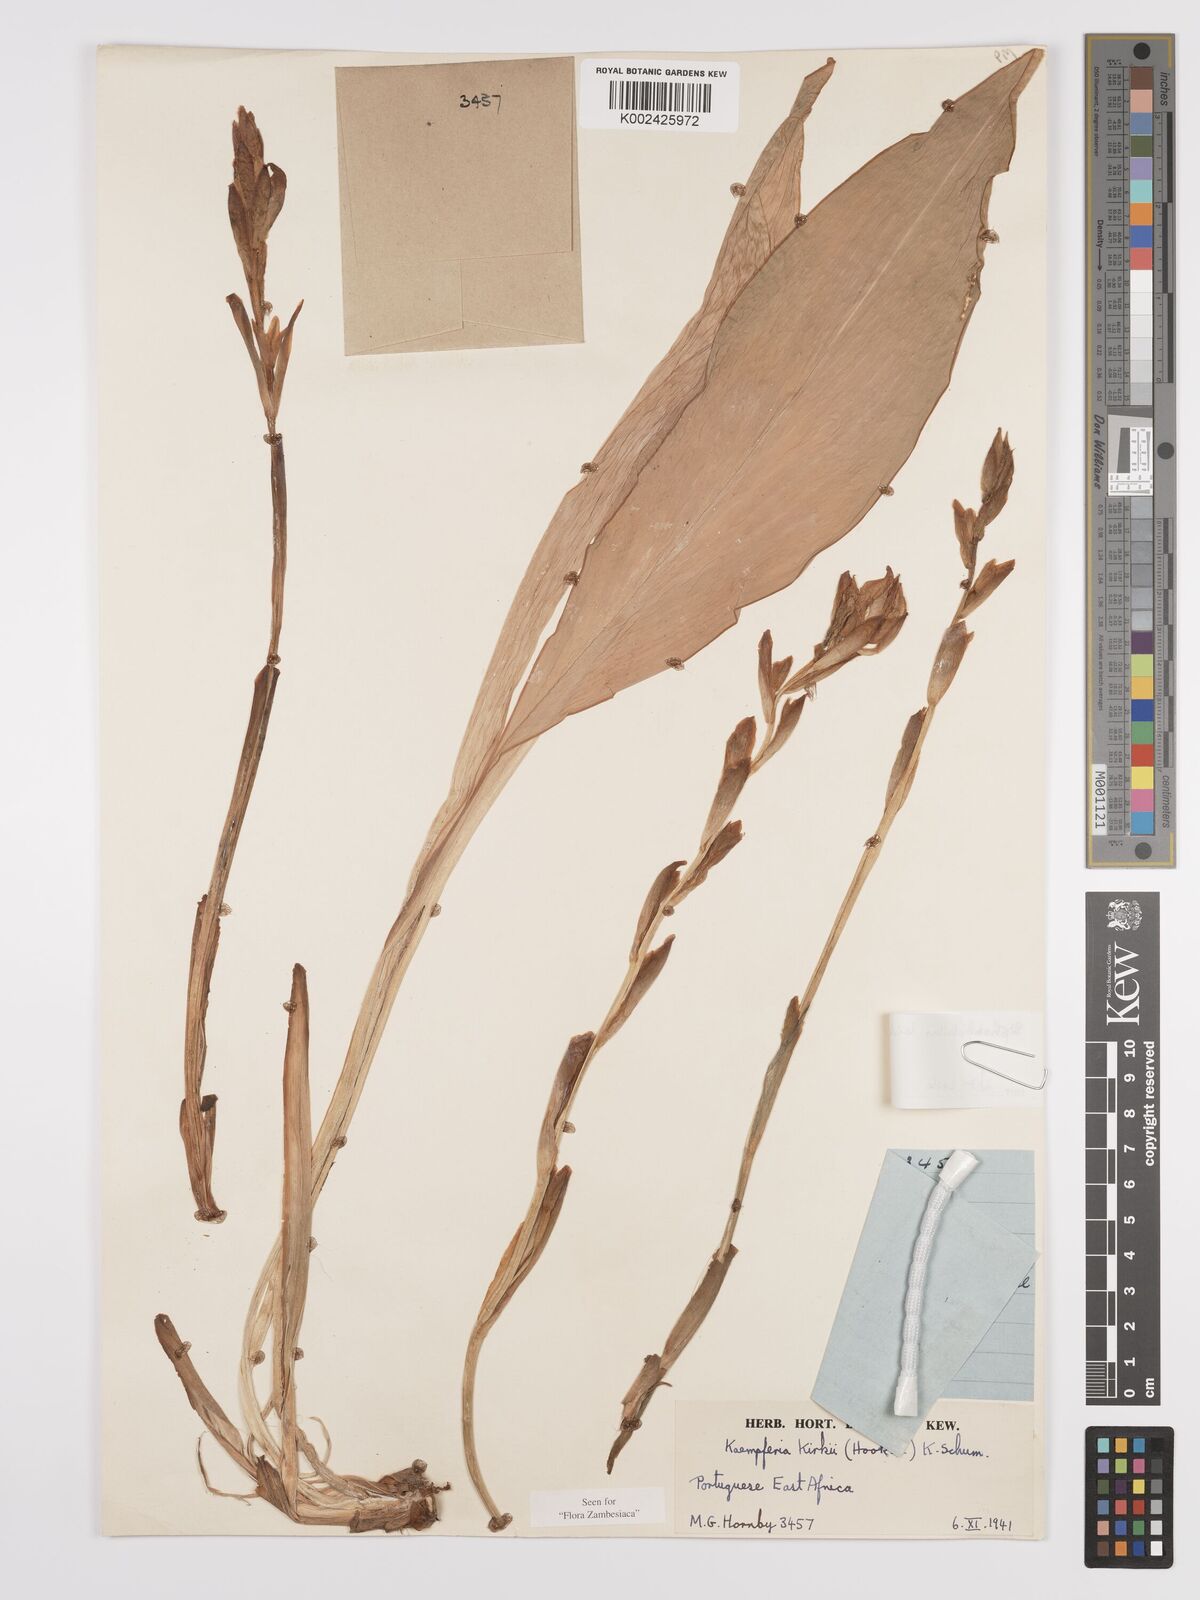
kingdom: Plantae
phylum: Tracheophyta
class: Liliopsida
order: Zingiberales
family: Zingiberaceae
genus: Siphonochilus
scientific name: Siphonochilus kirkii
